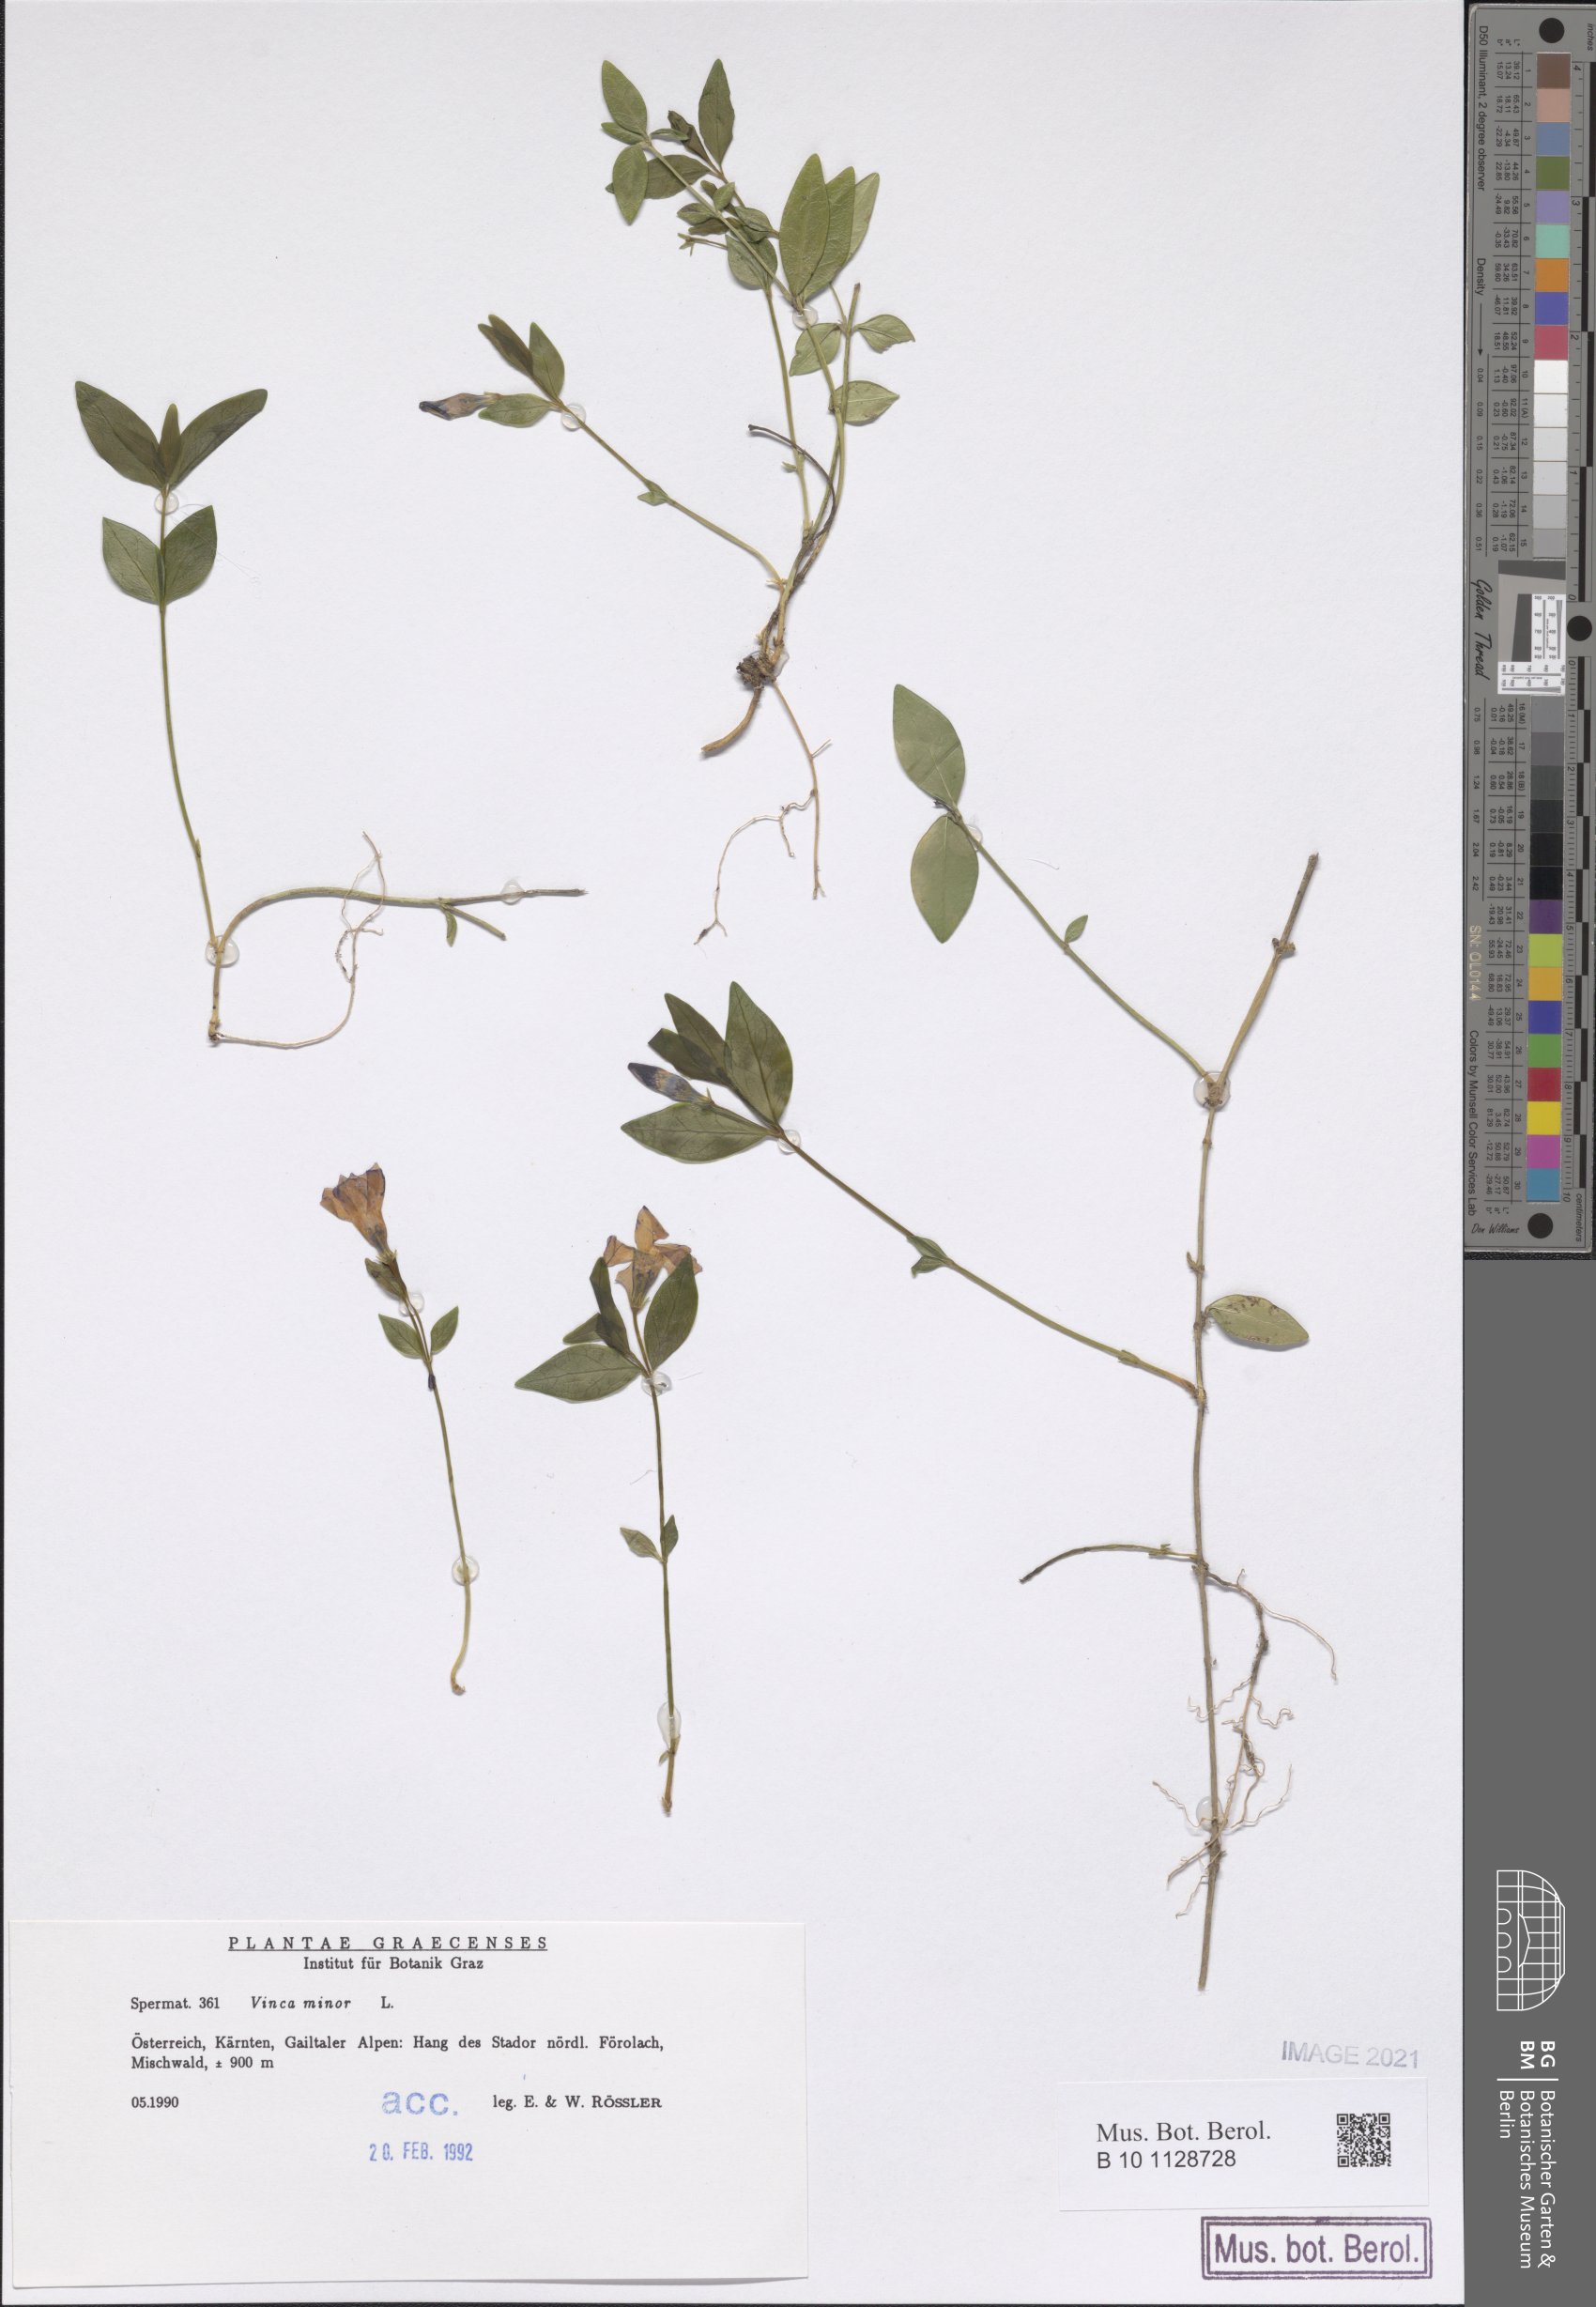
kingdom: Plantae
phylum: Tracheophyta
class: Magnoliopsida
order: Asterales
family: Asteraceae
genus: Senecio
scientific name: Senecio ovatus
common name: Wood ragwort
